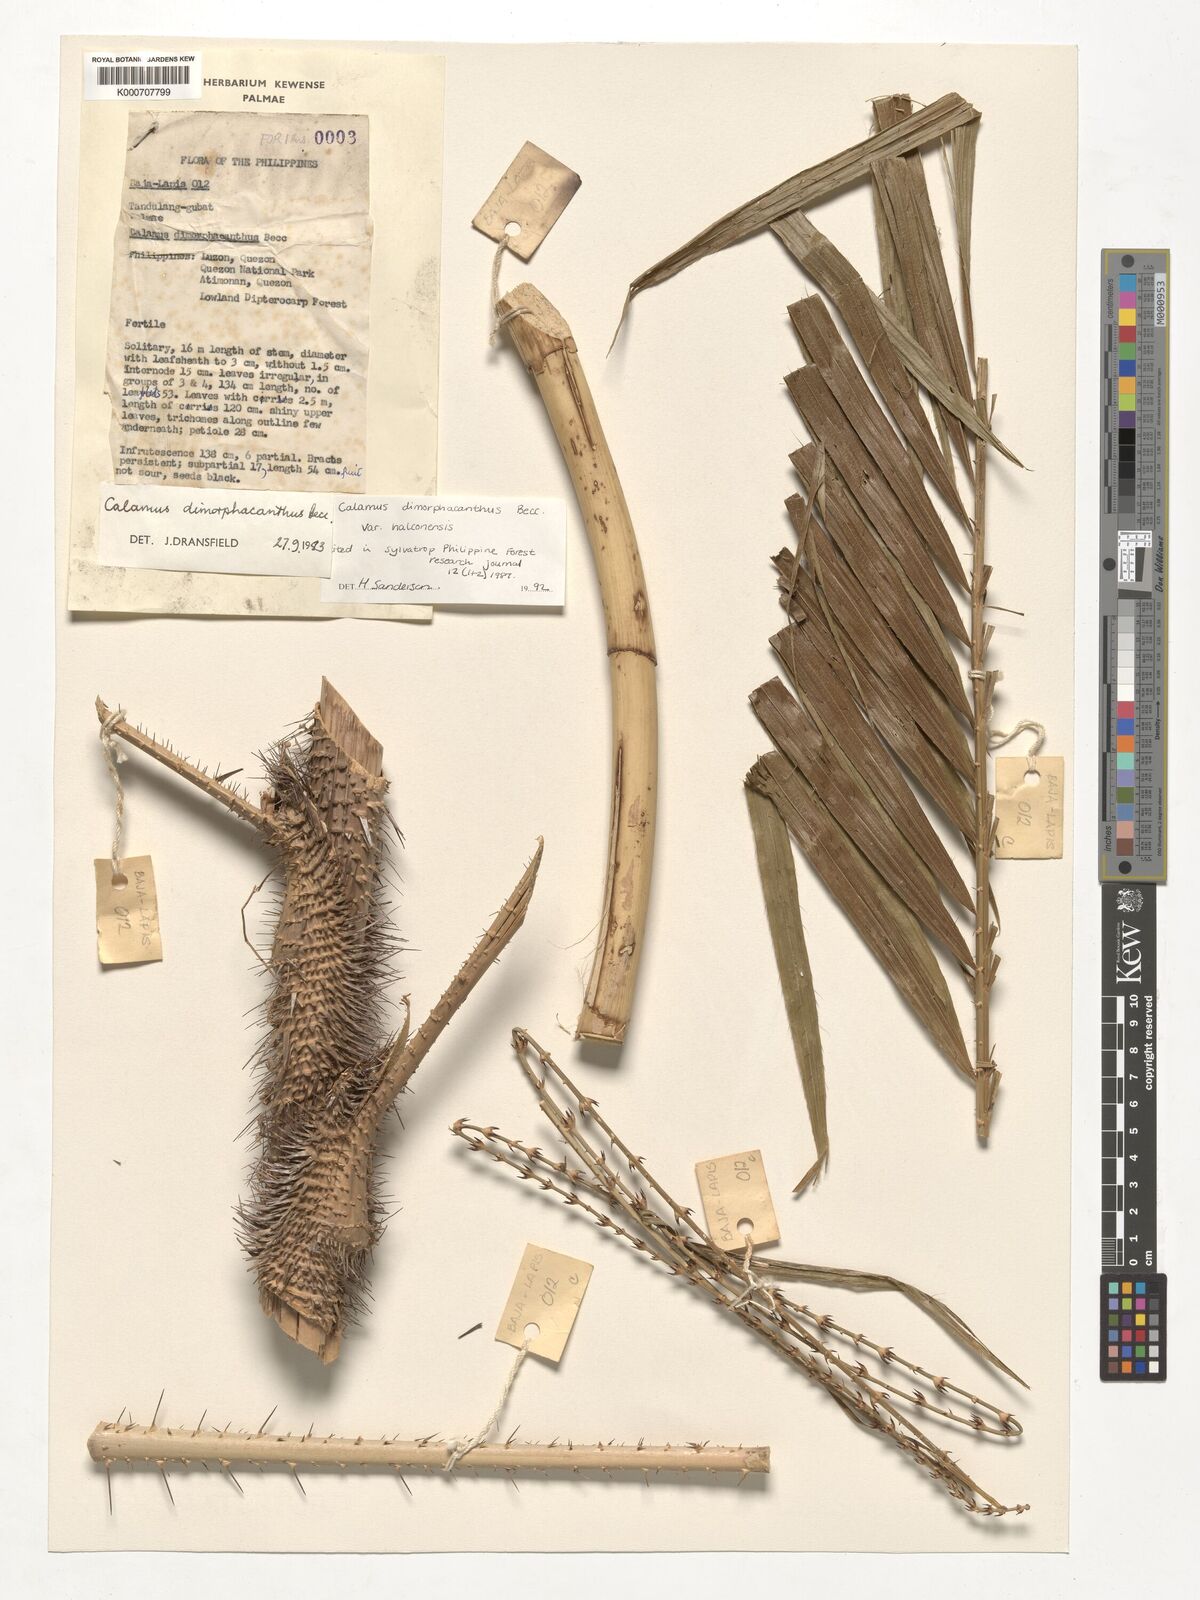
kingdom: Plantae
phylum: Tracheophyta
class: Liliopsida
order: Arecales
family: Arecaceae
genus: Calamus
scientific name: Calamus siphonospathus
